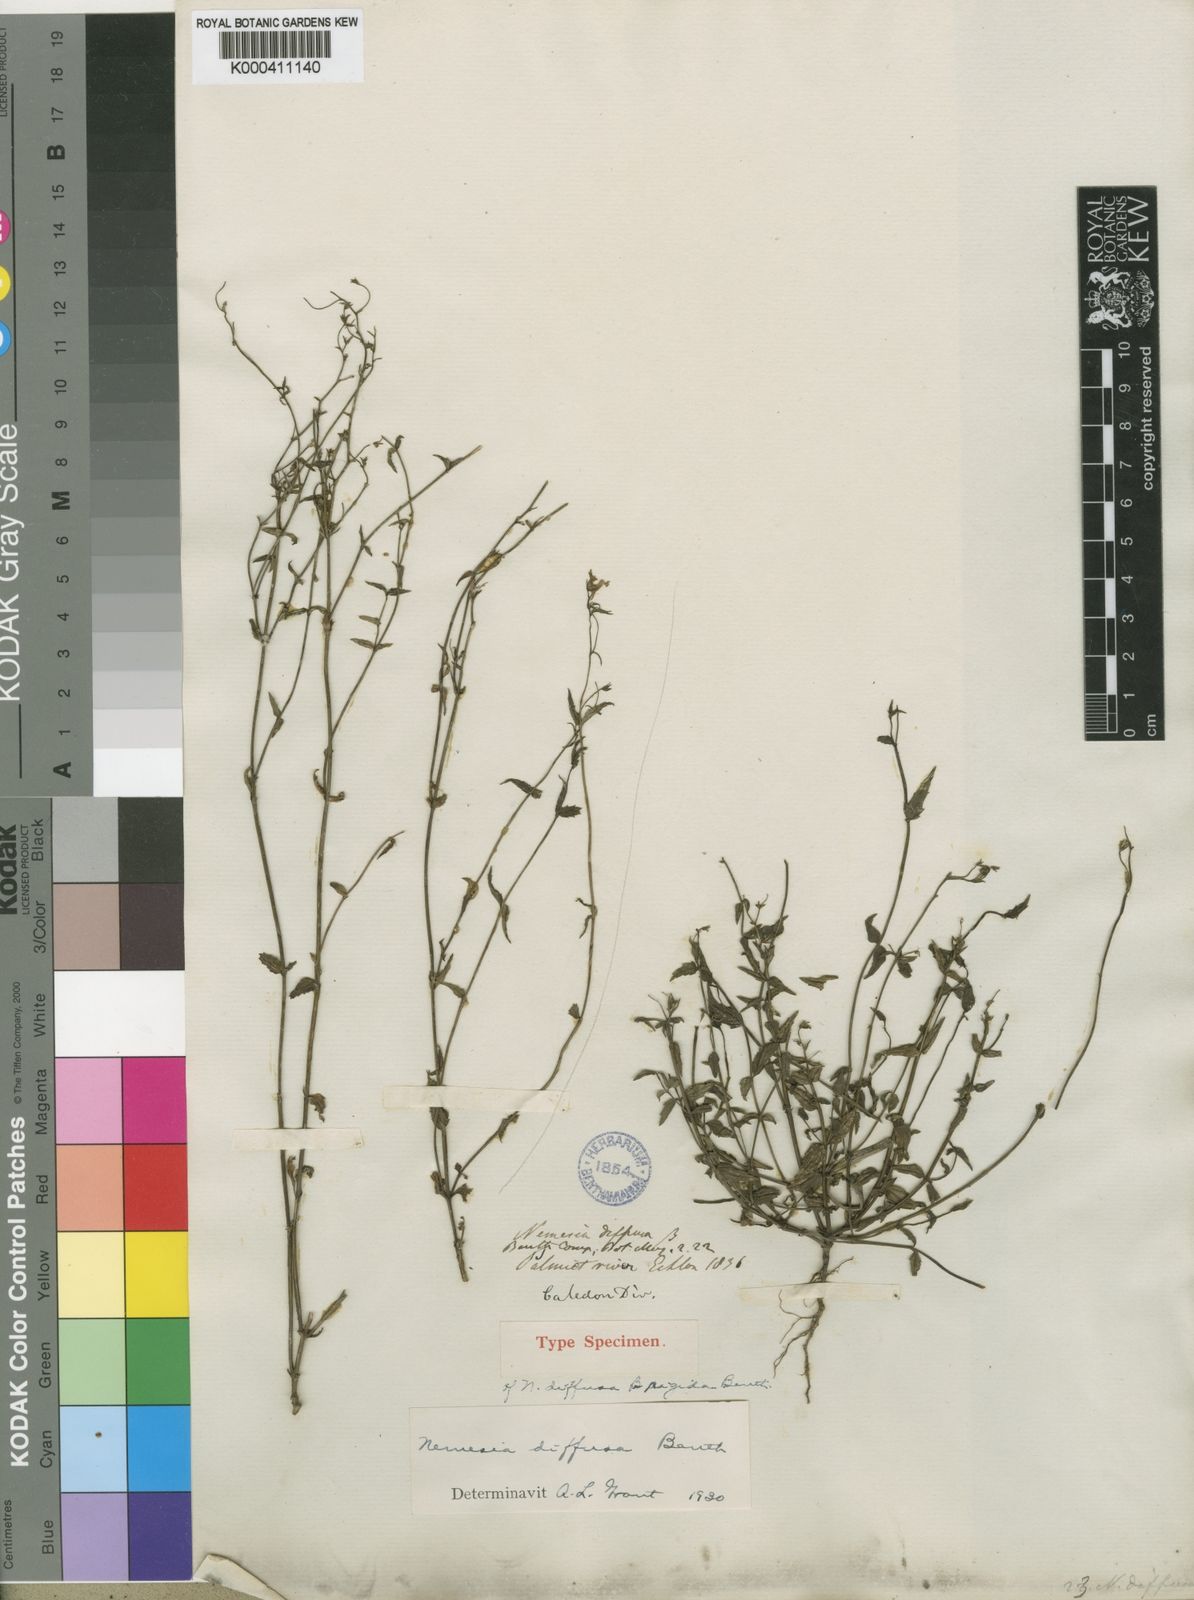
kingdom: Plantae
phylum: Tracheophyta
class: Magnoliopsida
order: Lamiales
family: Scrophulariaceae
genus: Nemesia
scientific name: Nemesia diffusa
